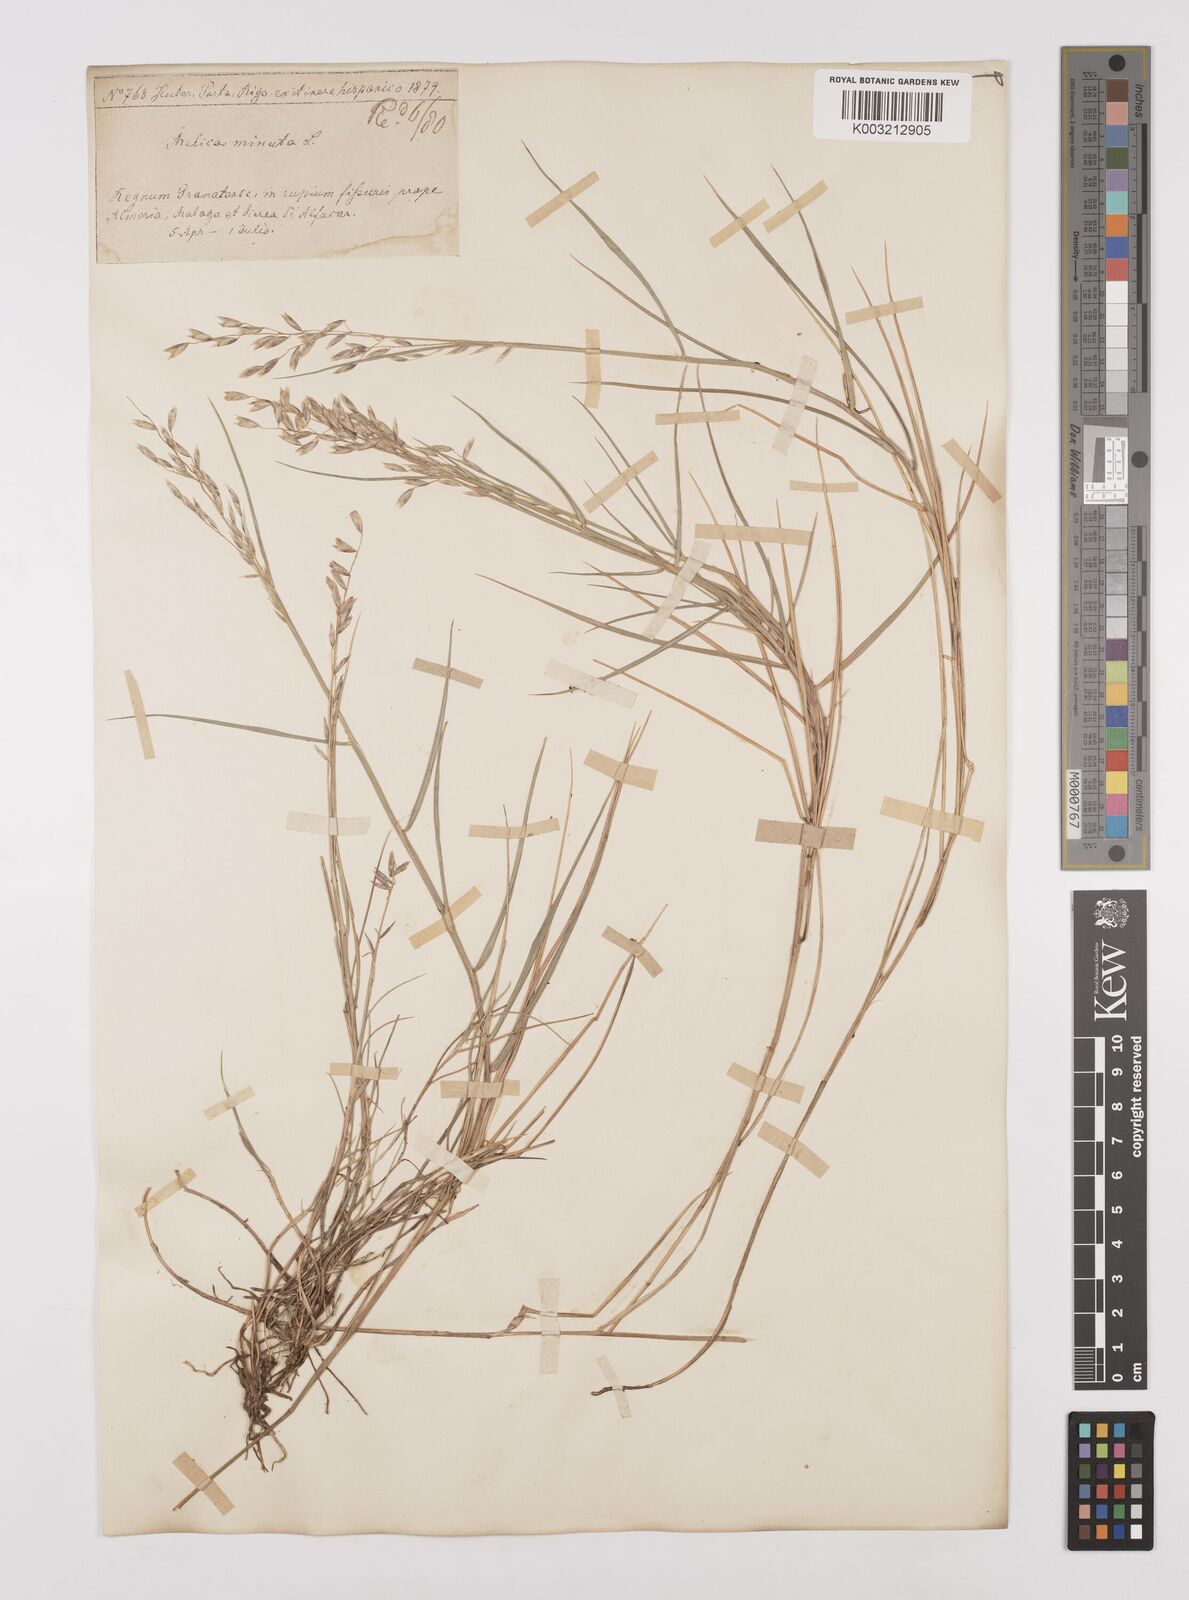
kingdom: Plantae
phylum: Tracheophyta
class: Liliopsida
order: Poales
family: Poaceae
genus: Melica
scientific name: Melica minuta
